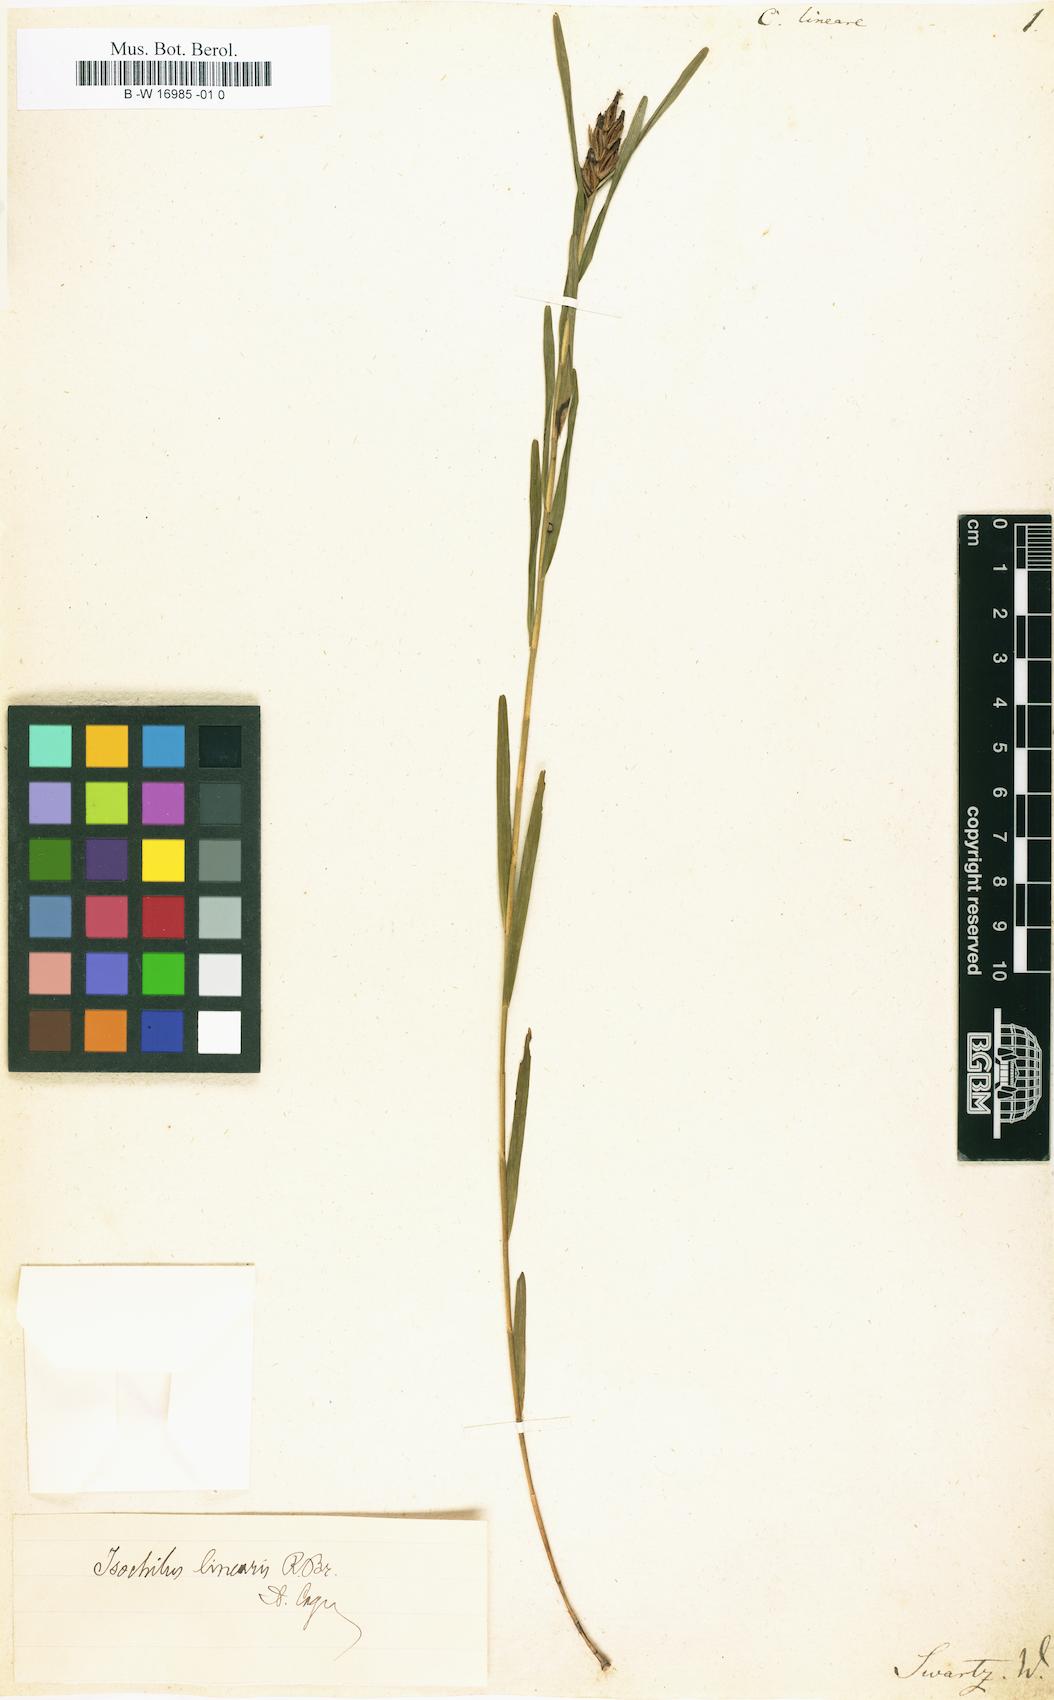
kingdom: Plantae
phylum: Tracheophyta
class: Liliopsida
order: Asparagales
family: Orchidaceae
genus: Isochilus
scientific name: Isochilus linearis
